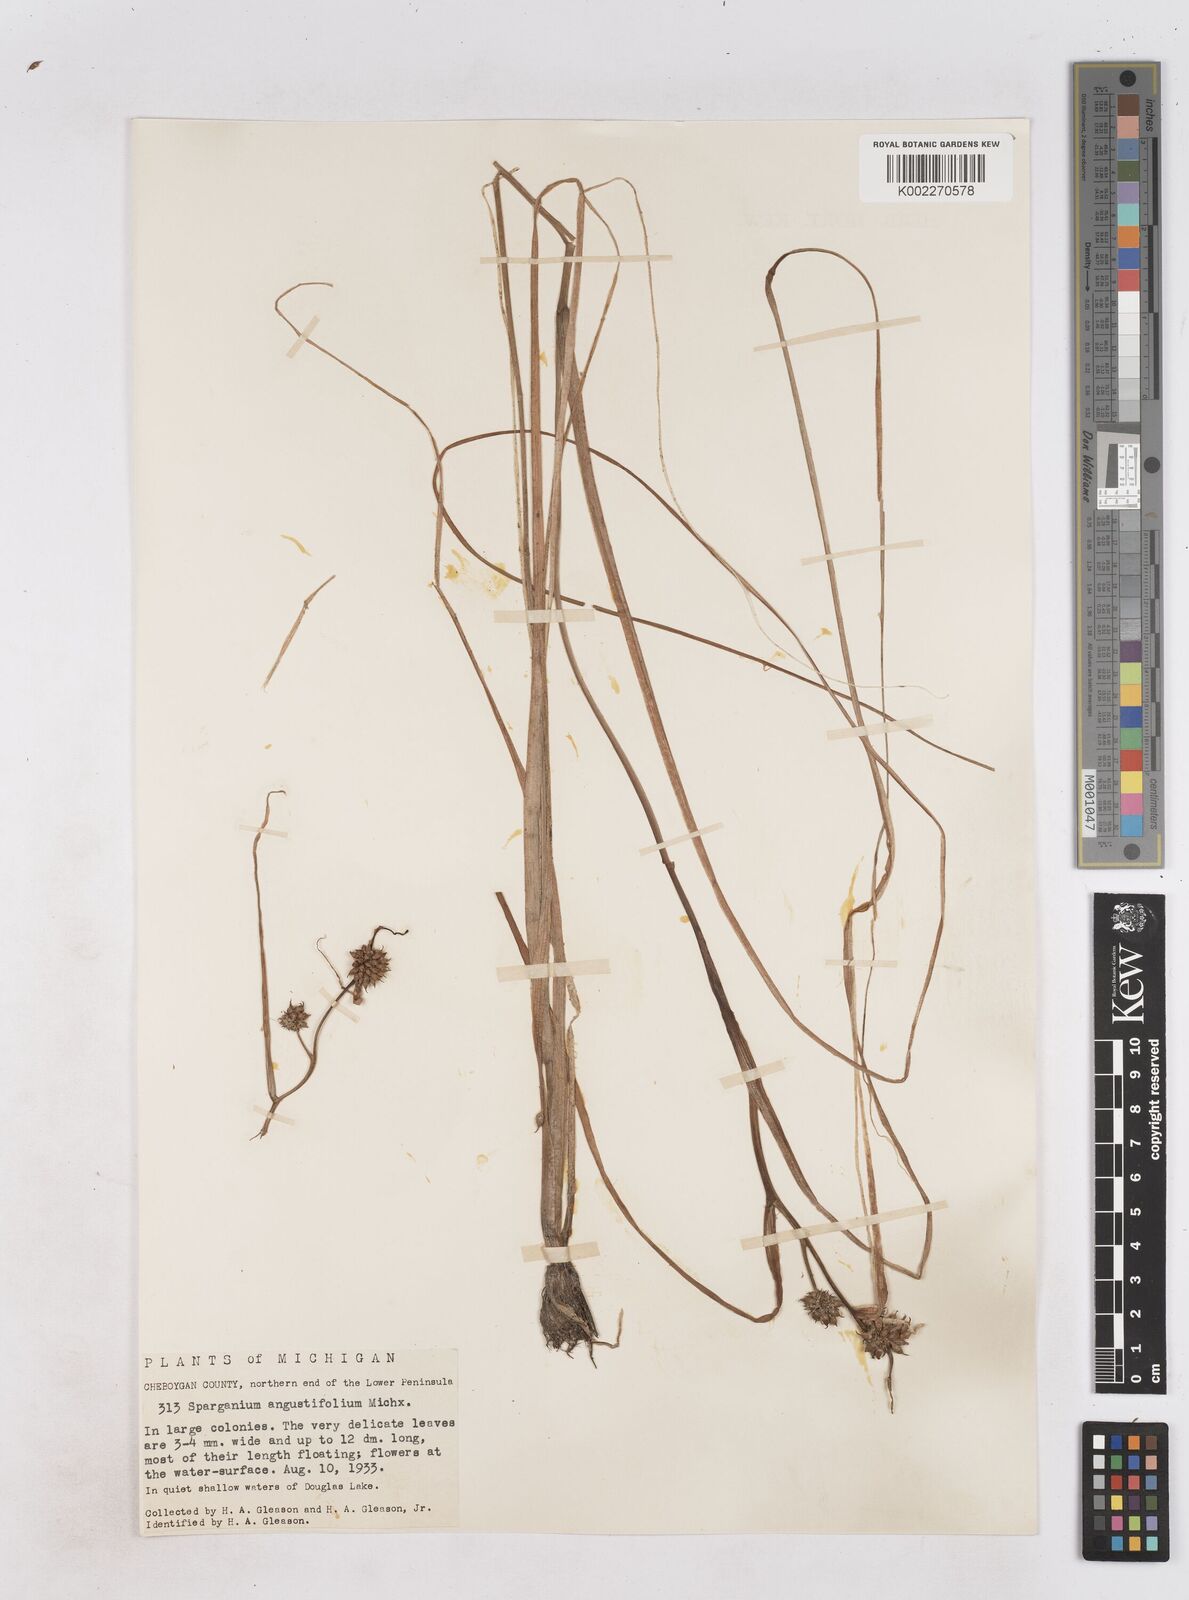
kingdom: Plantae
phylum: Tracheophyta
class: Liliopsida
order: Poales
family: Typhaceae
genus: Sparganium
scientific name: Sparganium angustifolium
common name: Floating bur-reed
